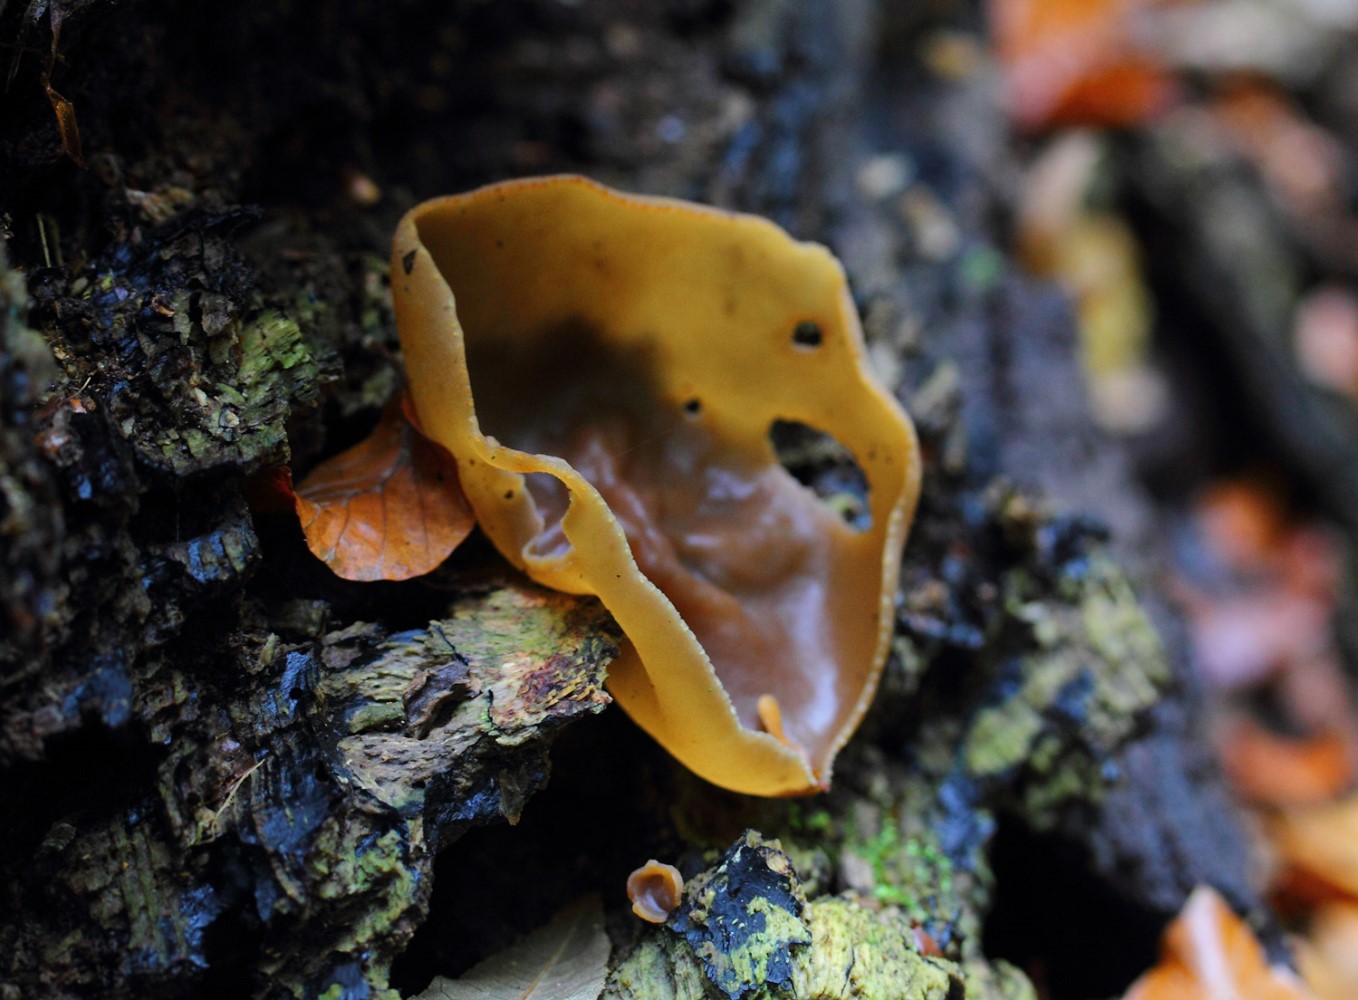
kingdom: Fungi
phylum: Ascomycota
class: Pezizomycetes
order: Pezizales
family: Pezizaceae
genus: Peziza
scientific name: Peziza varia
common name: Ved-bægersvamp
